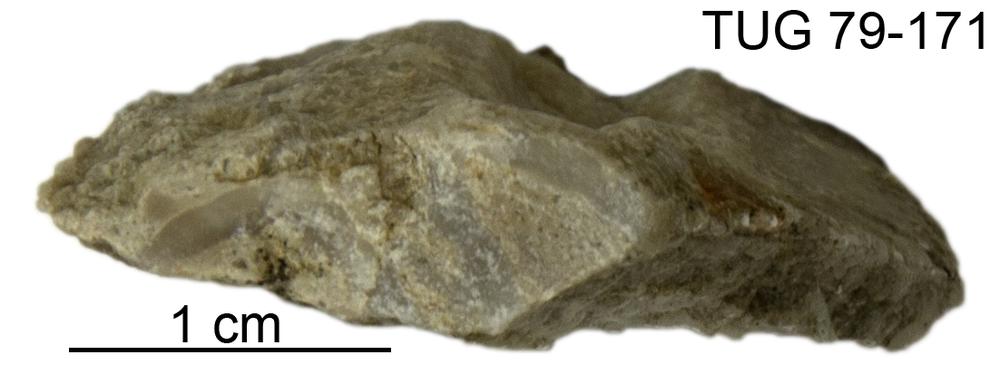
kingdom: Animalia
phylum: Cnidaria
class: Anthozoa
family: Cateniporidae
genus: Catenipora
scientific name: Catenipora
